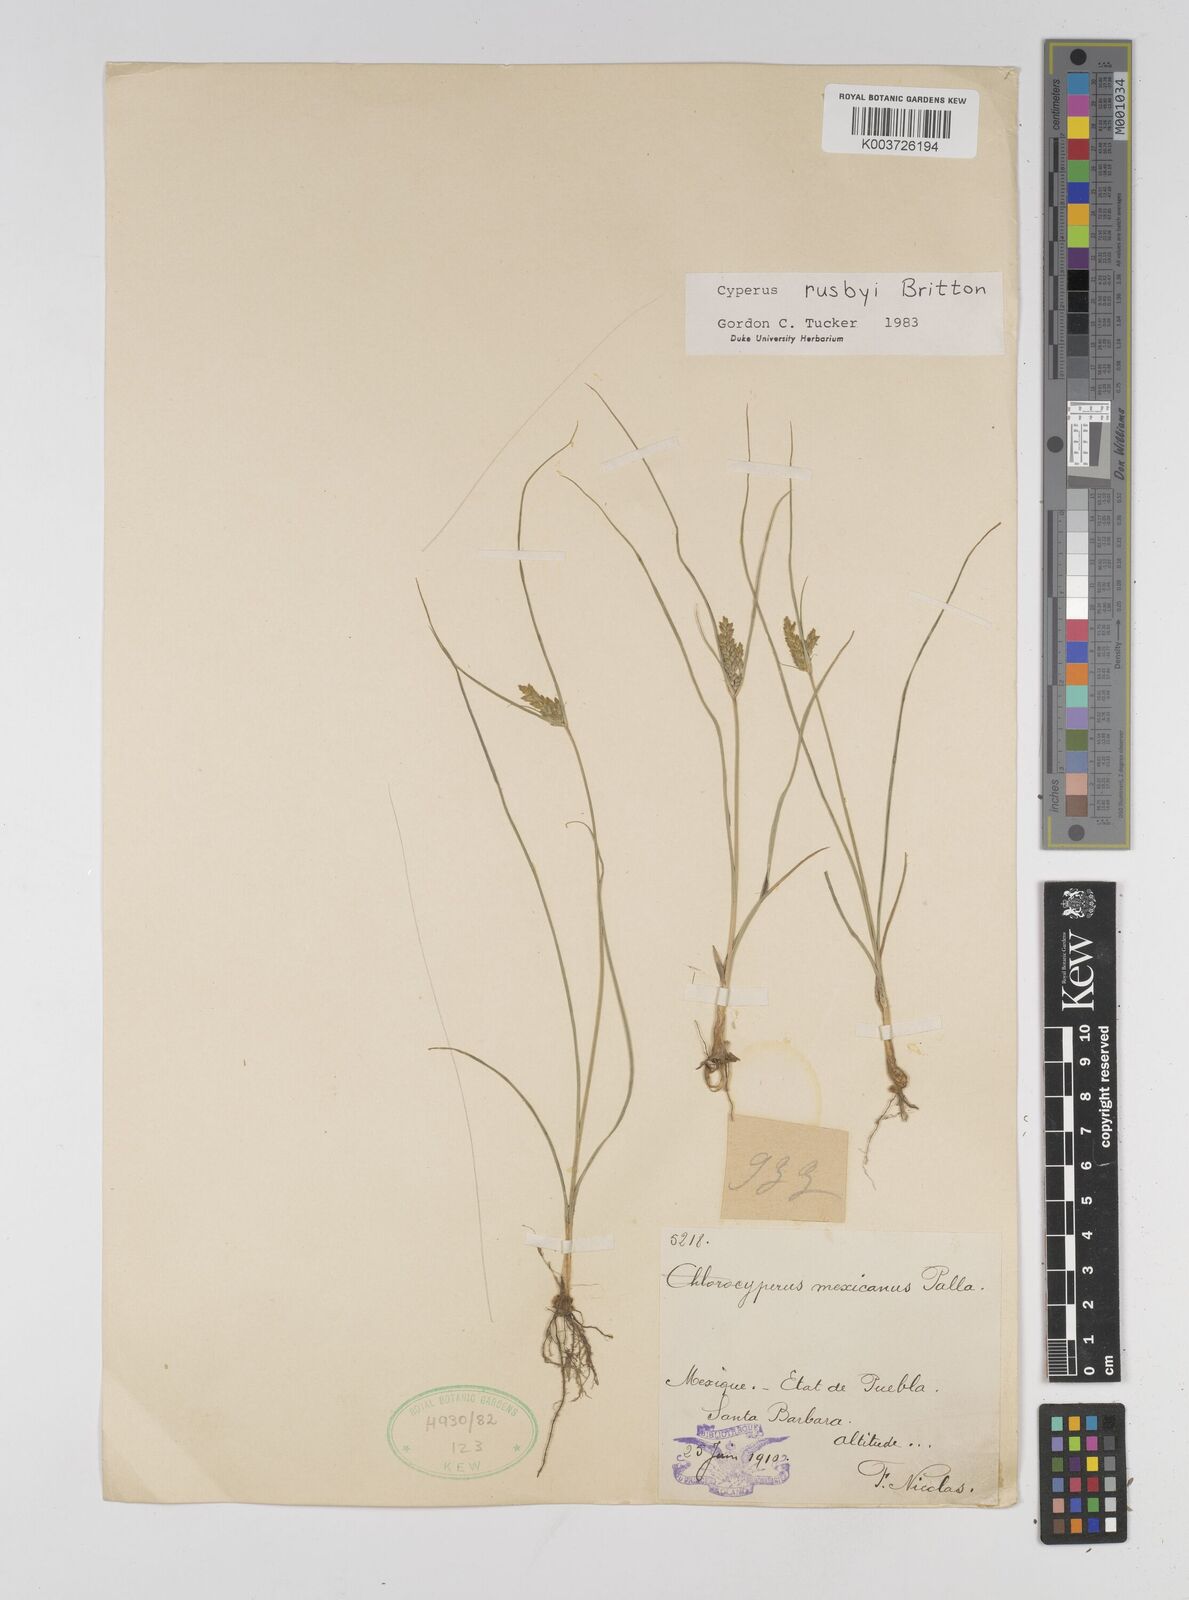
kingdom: Plantae
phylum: Tracheophyta
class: Liliopsida
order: Poales
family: Cyperaceae
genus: Cyperus
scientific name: Cyperus sphaerolepis
